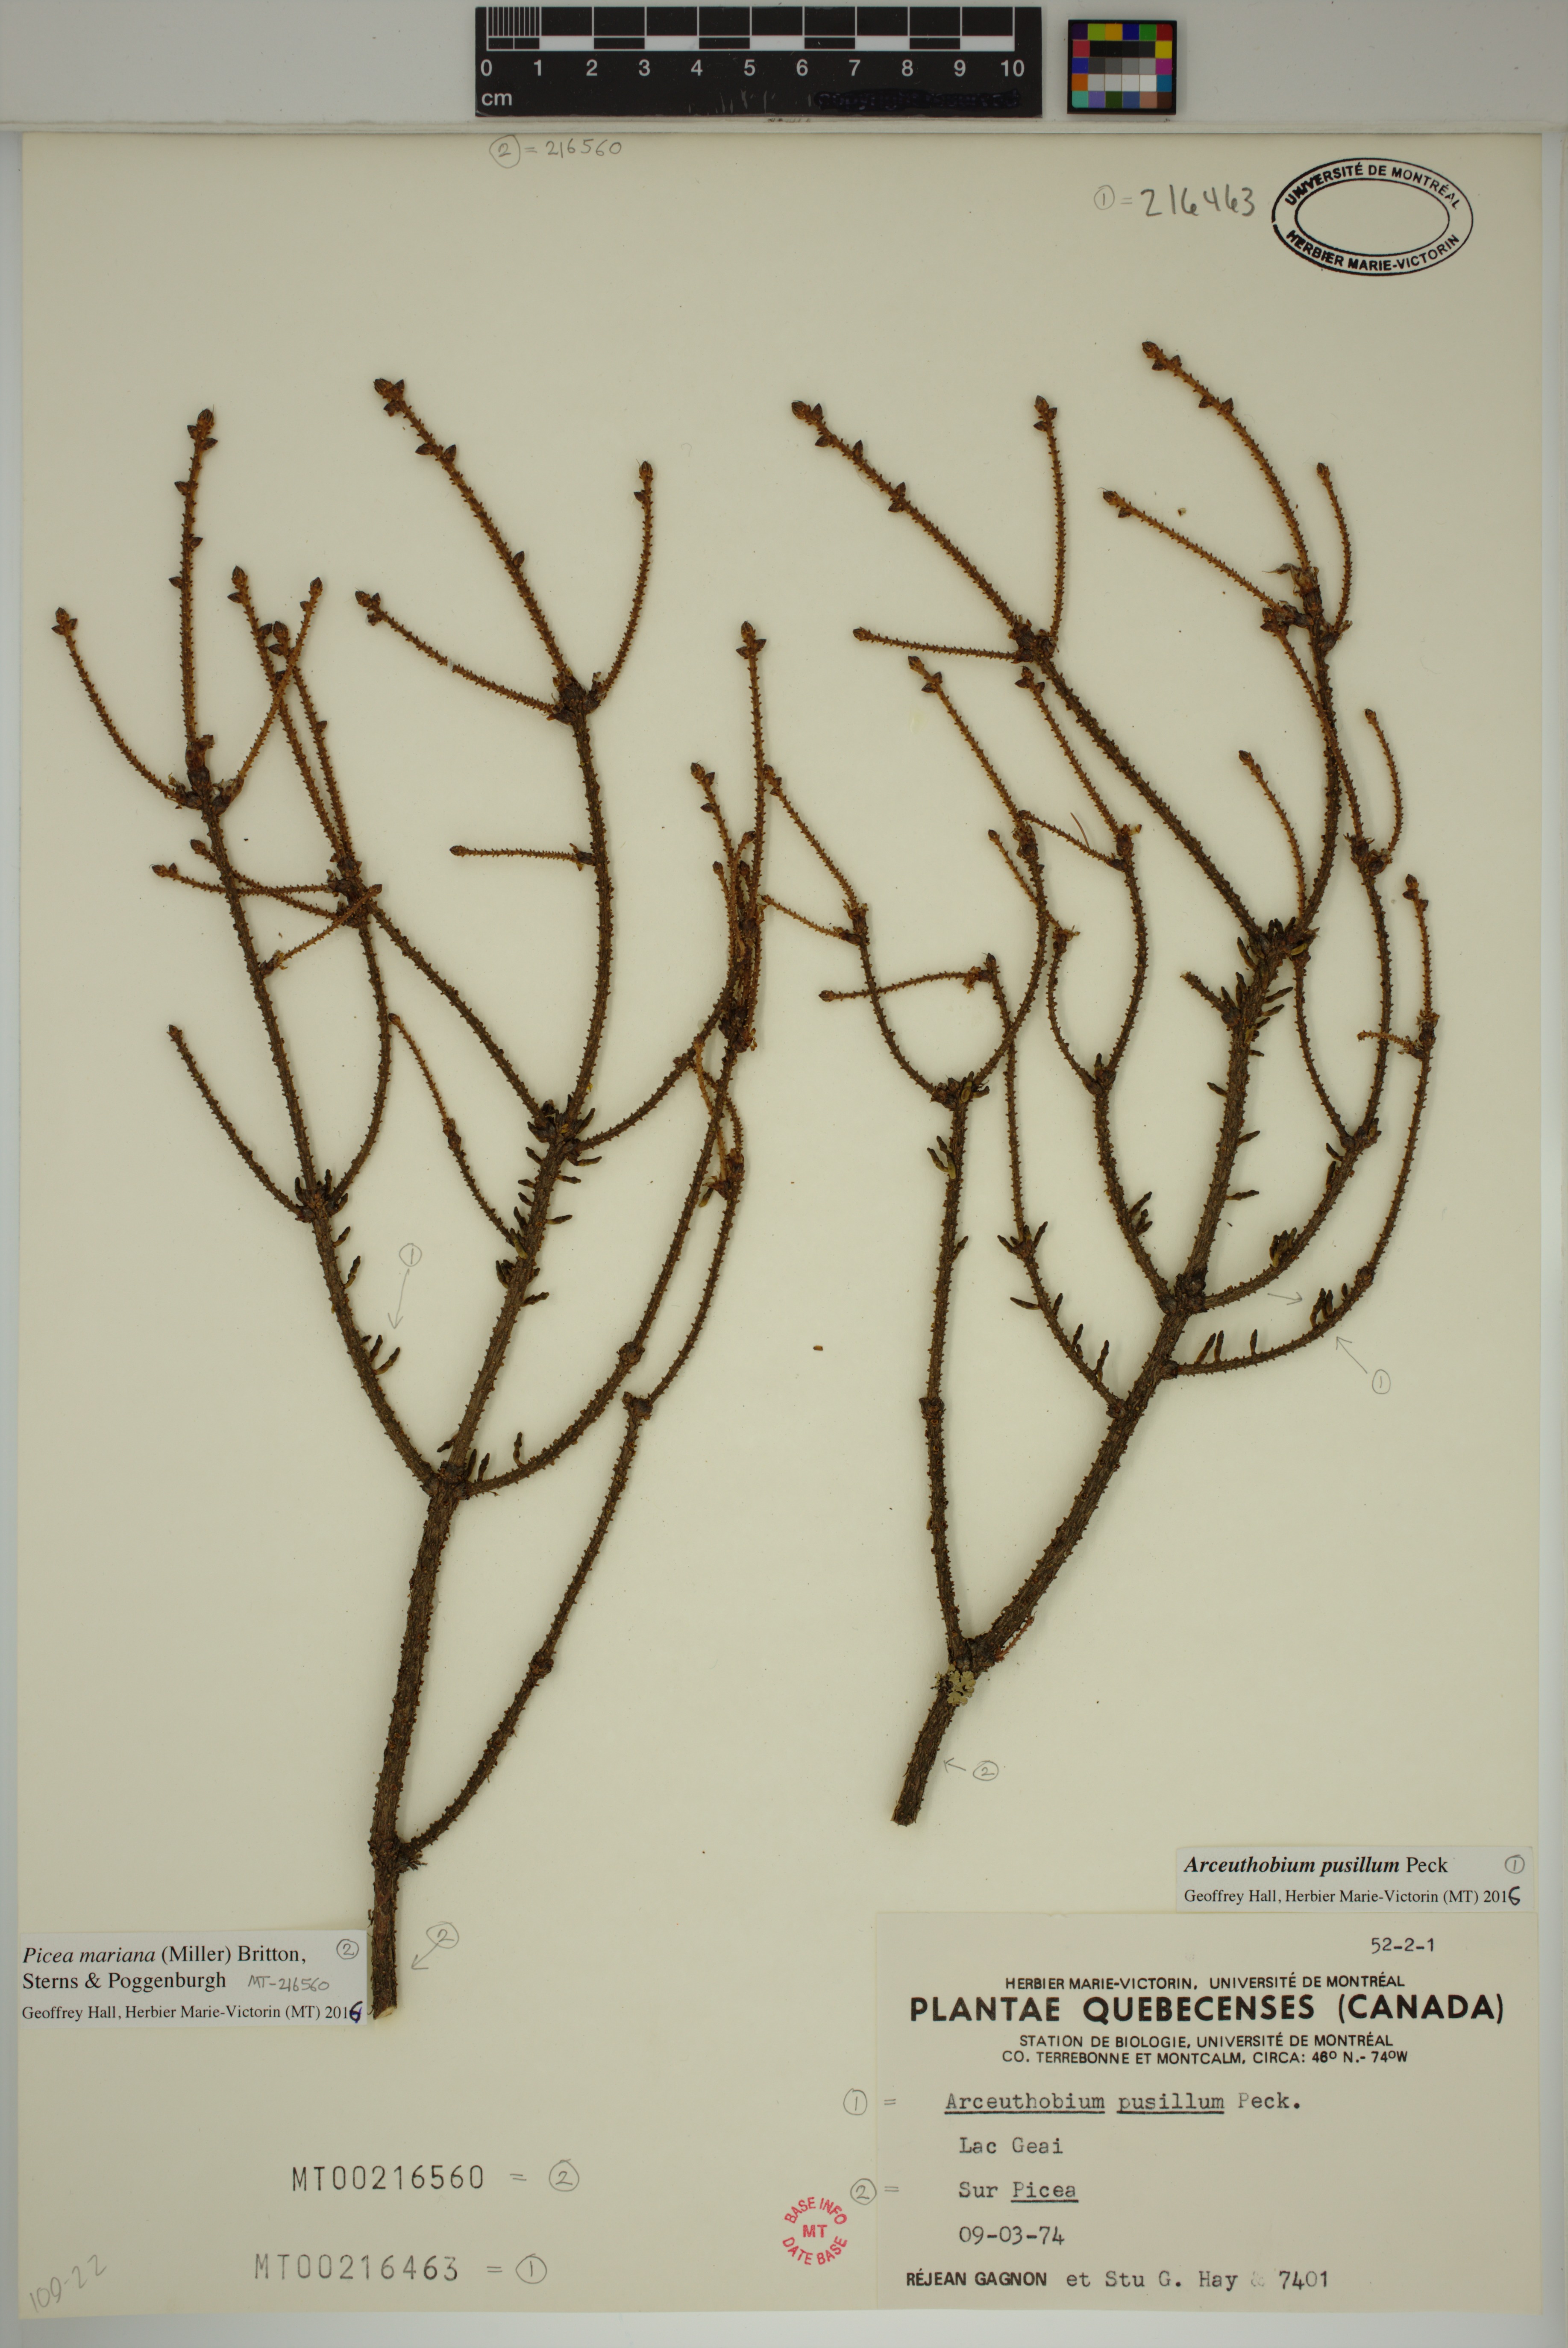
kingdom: Plantae
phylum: Tracheophyta
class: Magnoliopsida
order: Santalales
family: Viscaceae
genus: Arceuthobium
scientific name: Arceuthobium pusillum
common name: Dwarf-mistletoe
